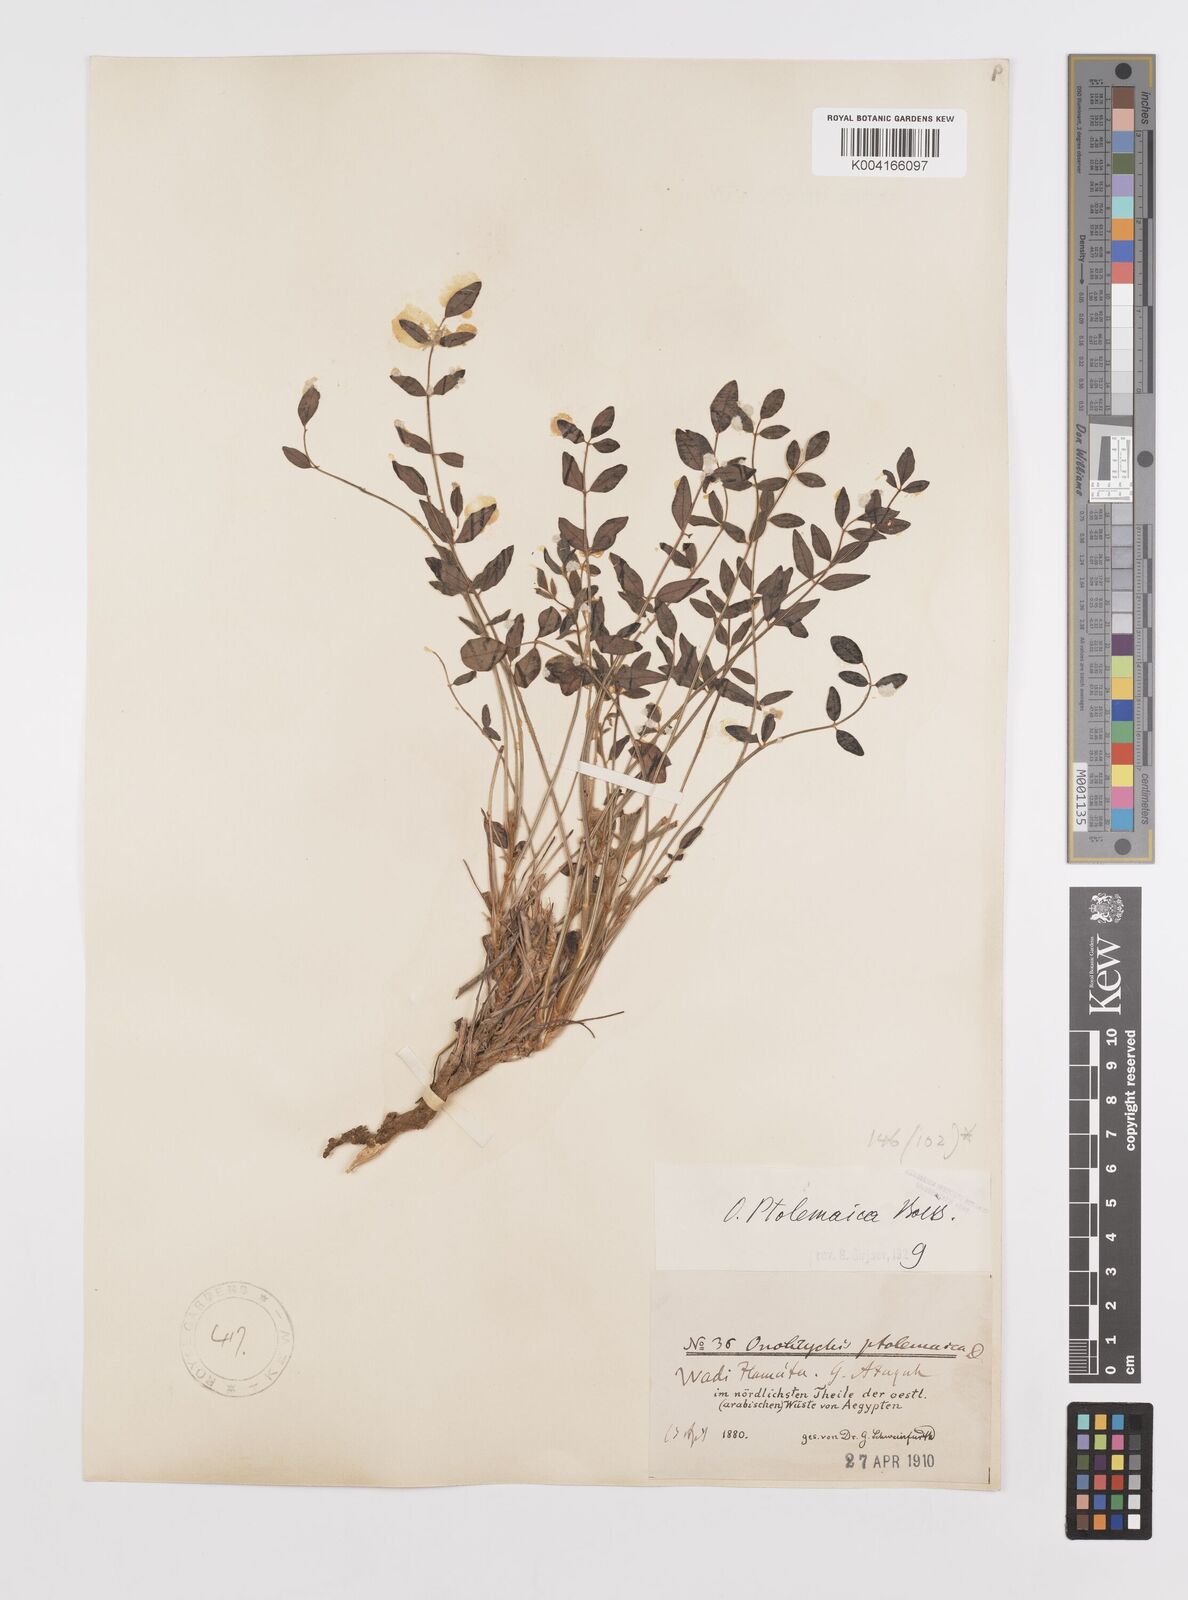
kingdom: Plantae
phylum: Tracheophyta
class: Magnoliopsida
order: Fabales
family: Fabaceae
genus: Onobrychis
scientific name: Onobrychis ptolemaica
